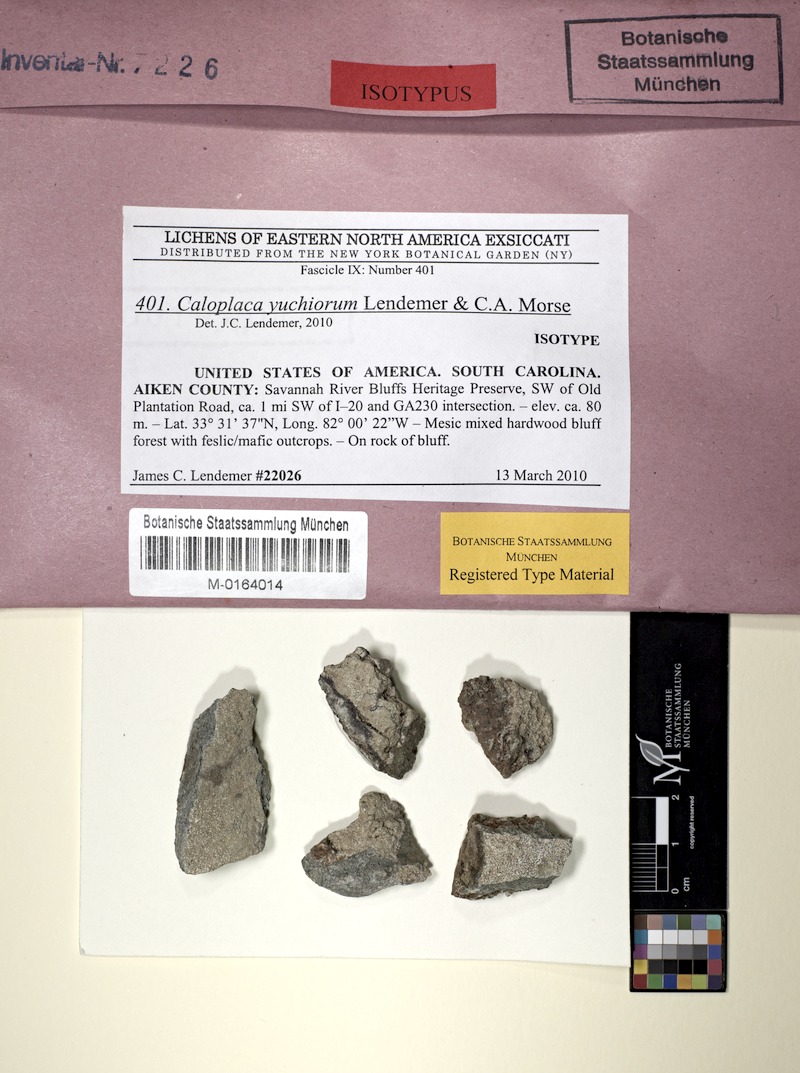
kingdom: Fungi
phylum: Ascomycota
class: Lecanoromycetes
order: Teloschistales
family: Teloschistaceae
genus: Loekoesia
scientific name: Loekoesia yuchiorum
